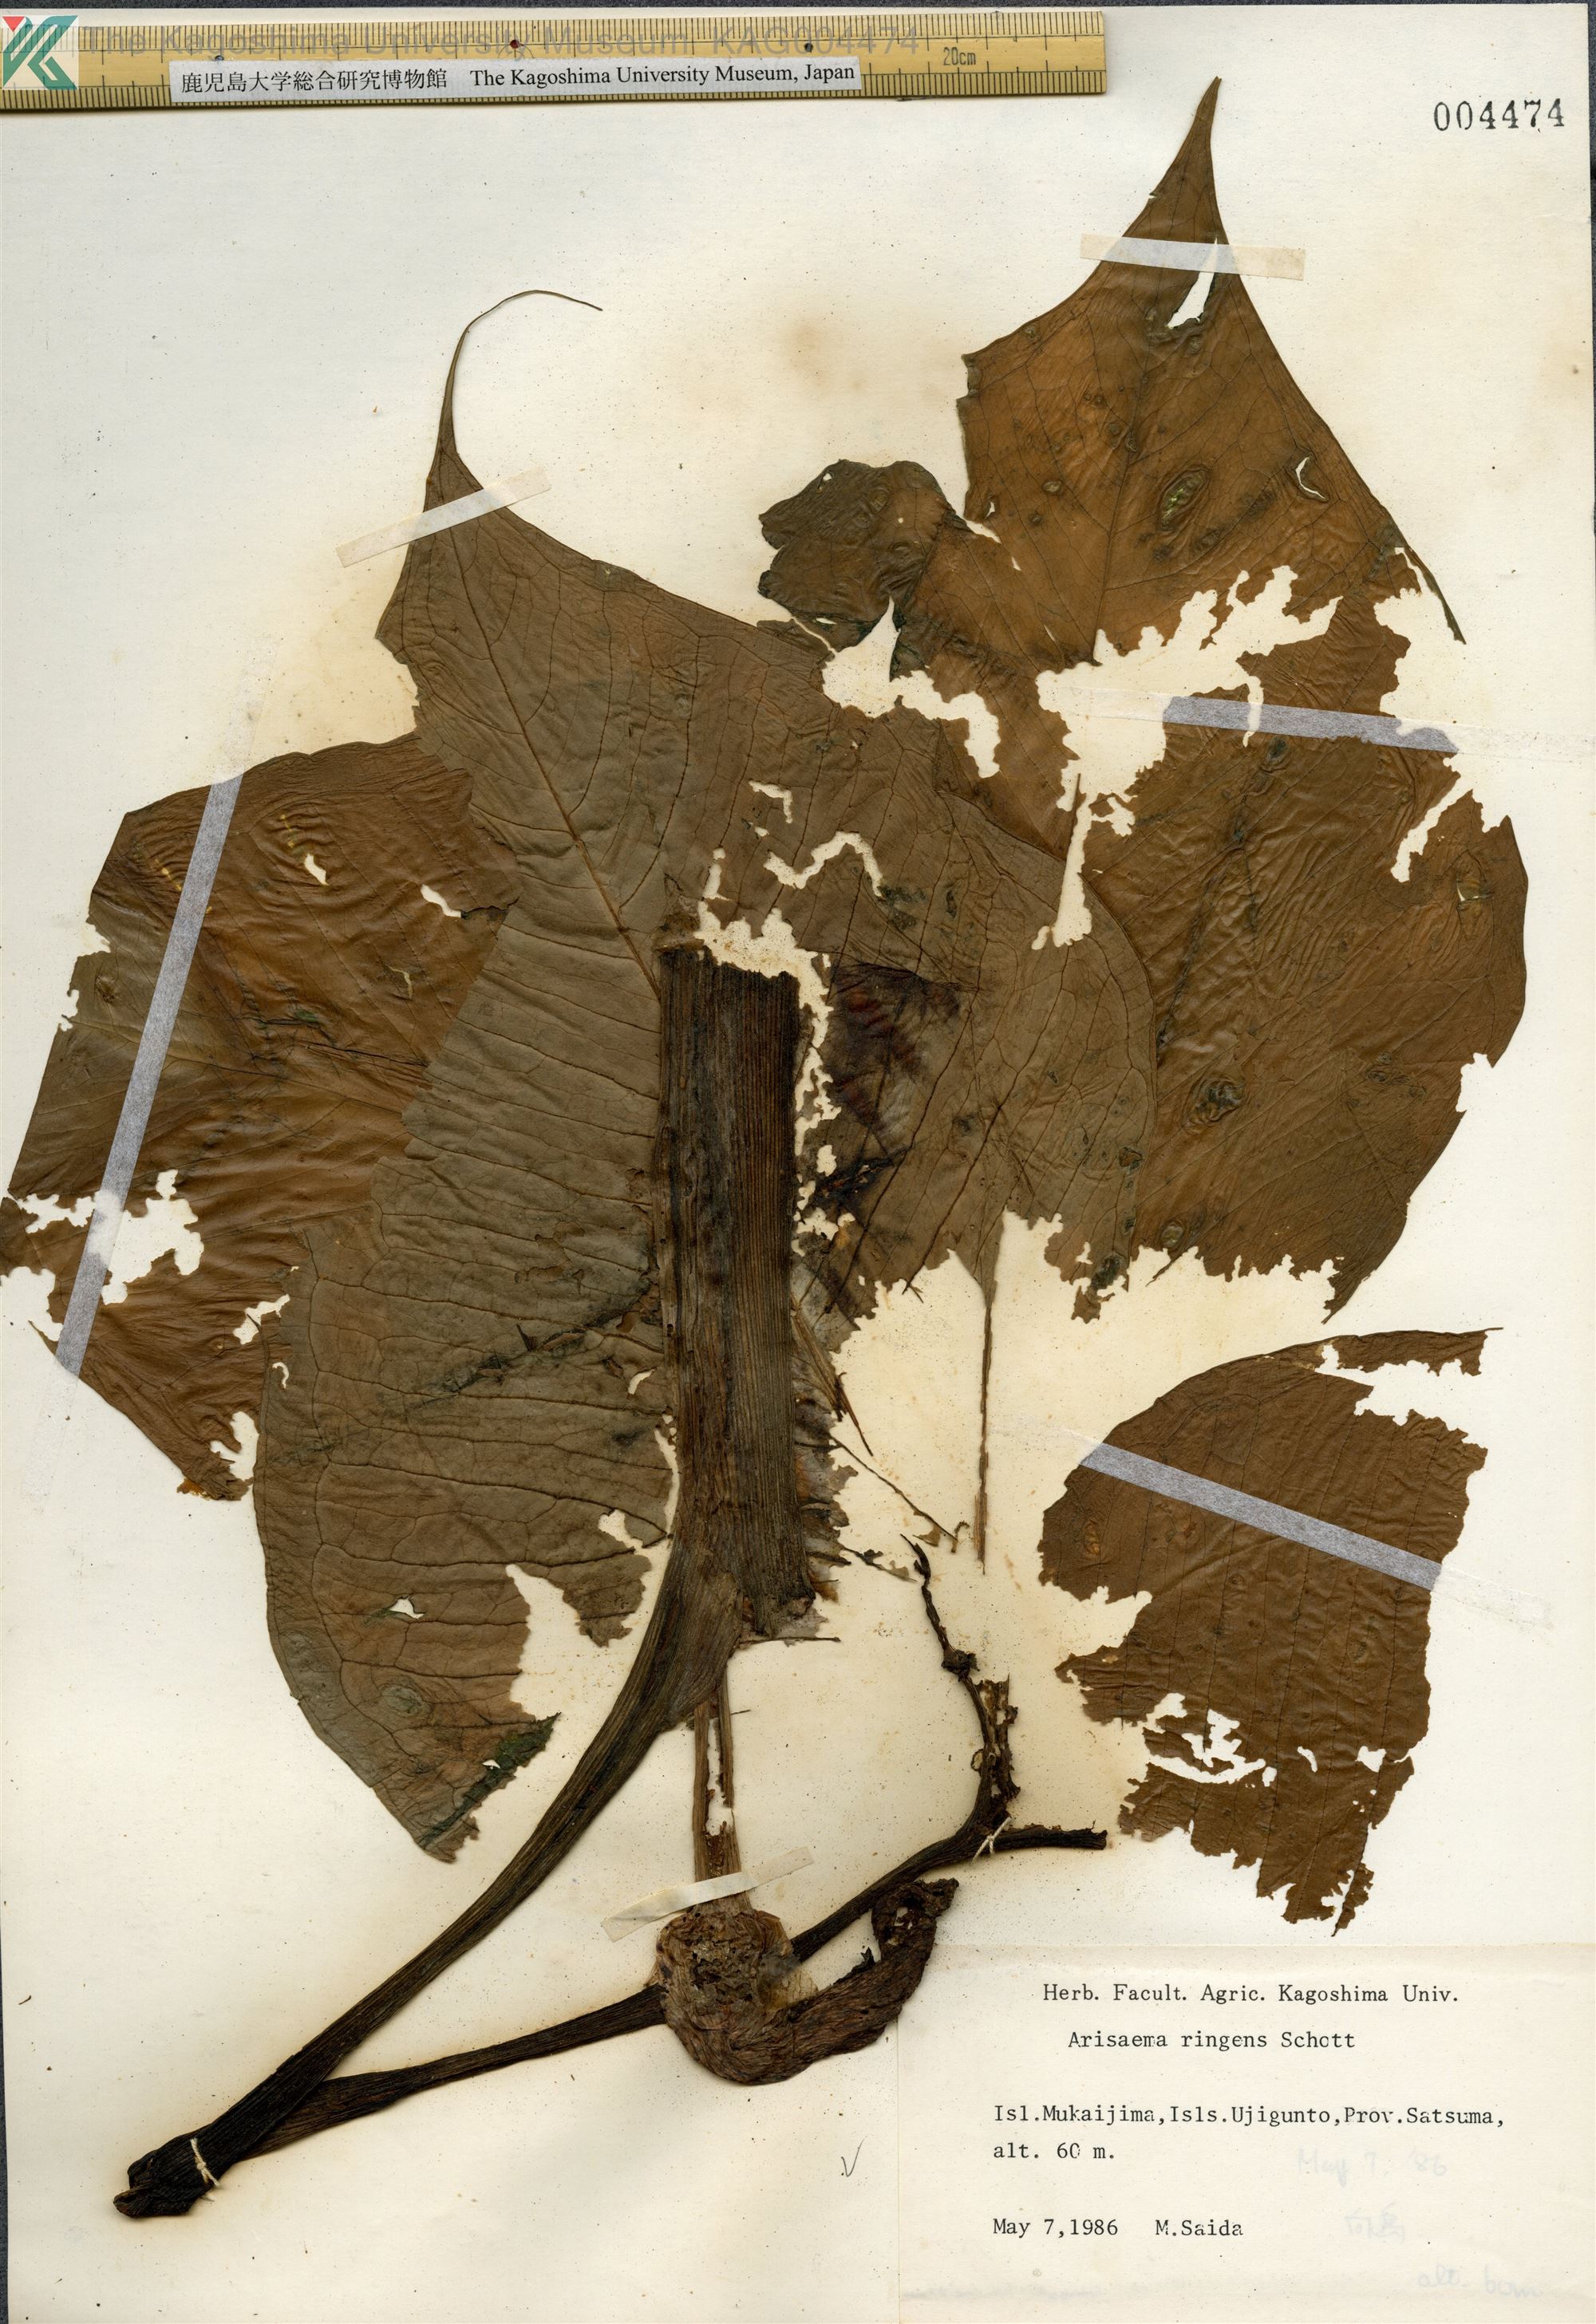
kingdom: Plantae
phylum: Tracheophyta
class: Liliopsida
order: Alismatales
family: Araceae
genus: Arisaema
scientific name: Arisaema ringens
